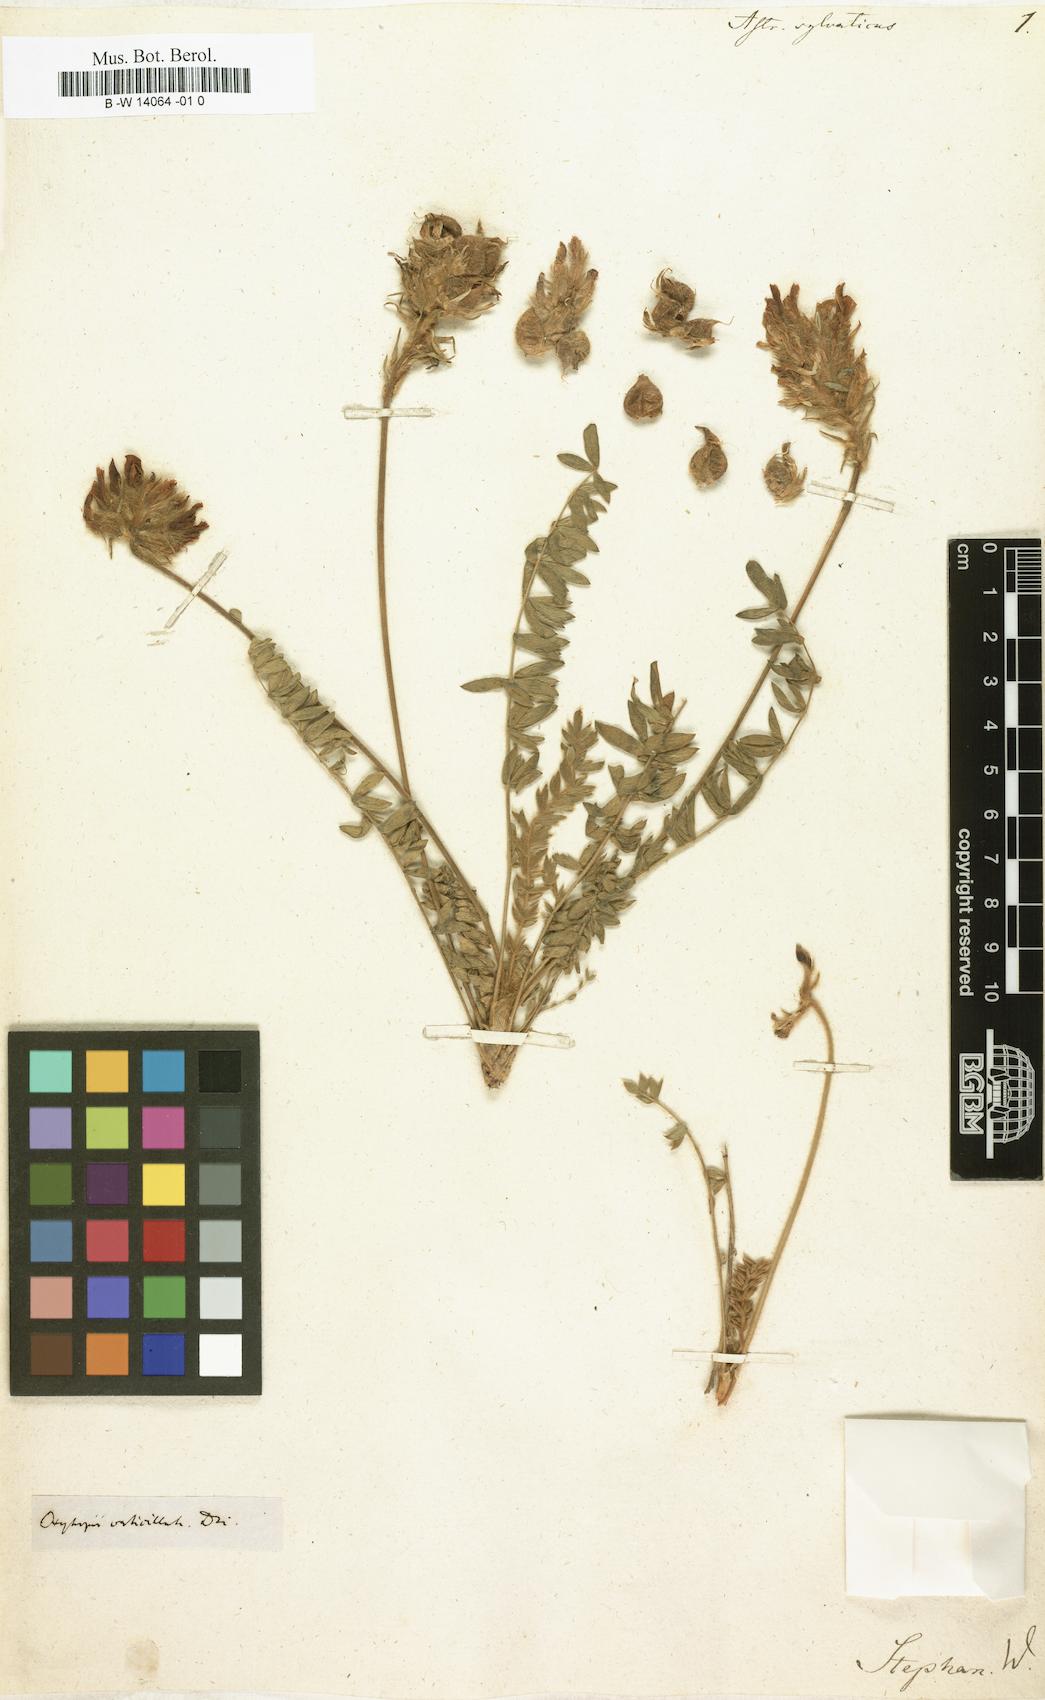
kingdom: Plantae
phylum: Tracheophyta
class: Magnoliopsida
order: Fabales
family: Fabaceae
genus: Oxytropis
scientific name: Oxytropis sylvatica
